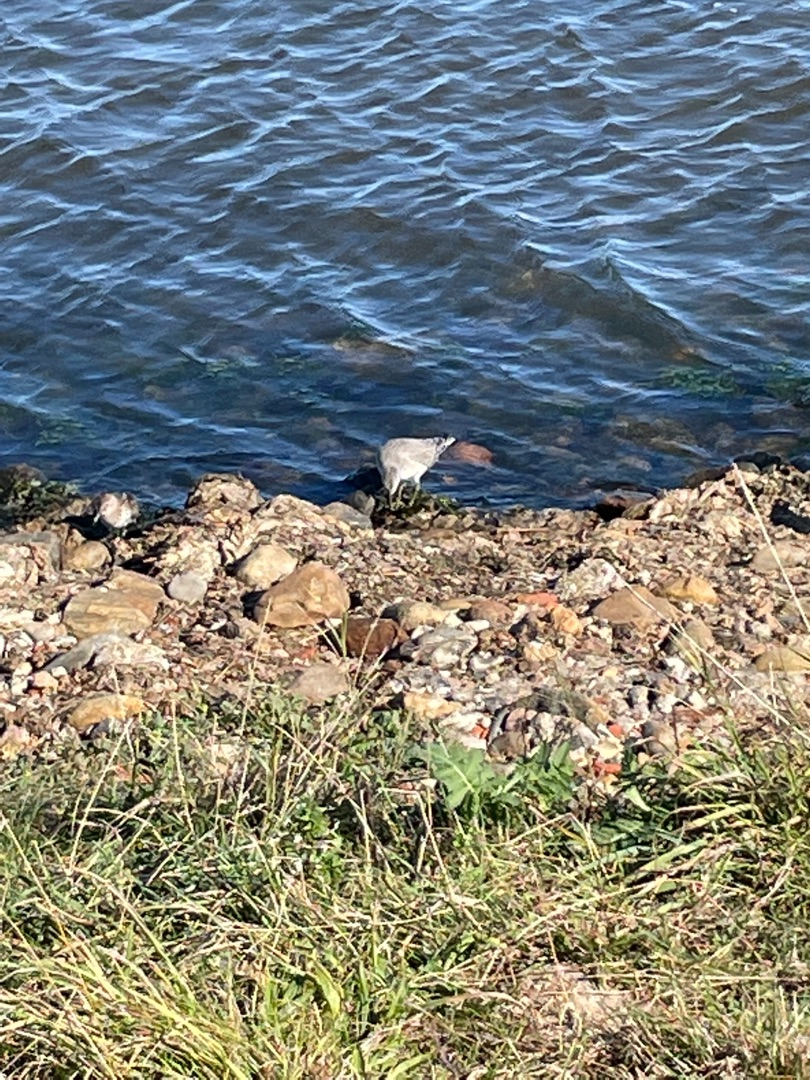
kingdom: Animalia
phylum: Chordata
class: Aves
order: Charadriiformes
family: Scolopacidae
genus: Calidris
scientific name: Calidris canutus
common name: Islandsk ryle
